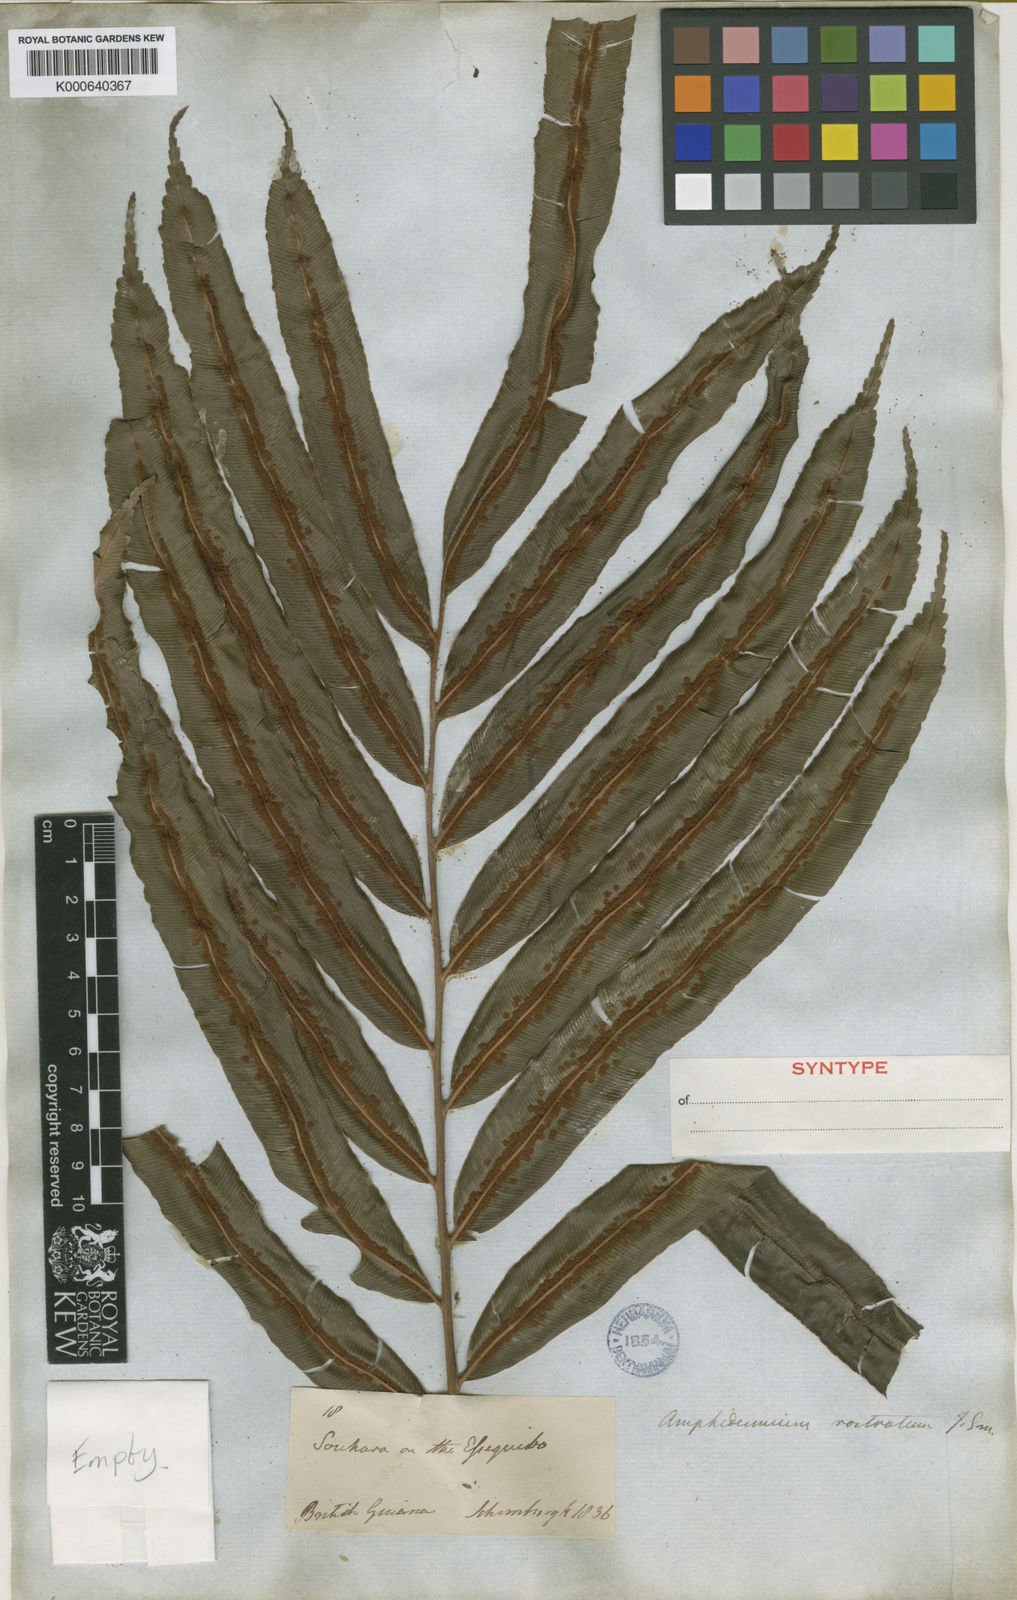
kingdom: Plantae
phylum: Tracheophyta
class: Polypodiopsida
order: Cyatheales
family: Metaxyaceae
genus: Metaxya
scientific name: Metaxya rostrata
